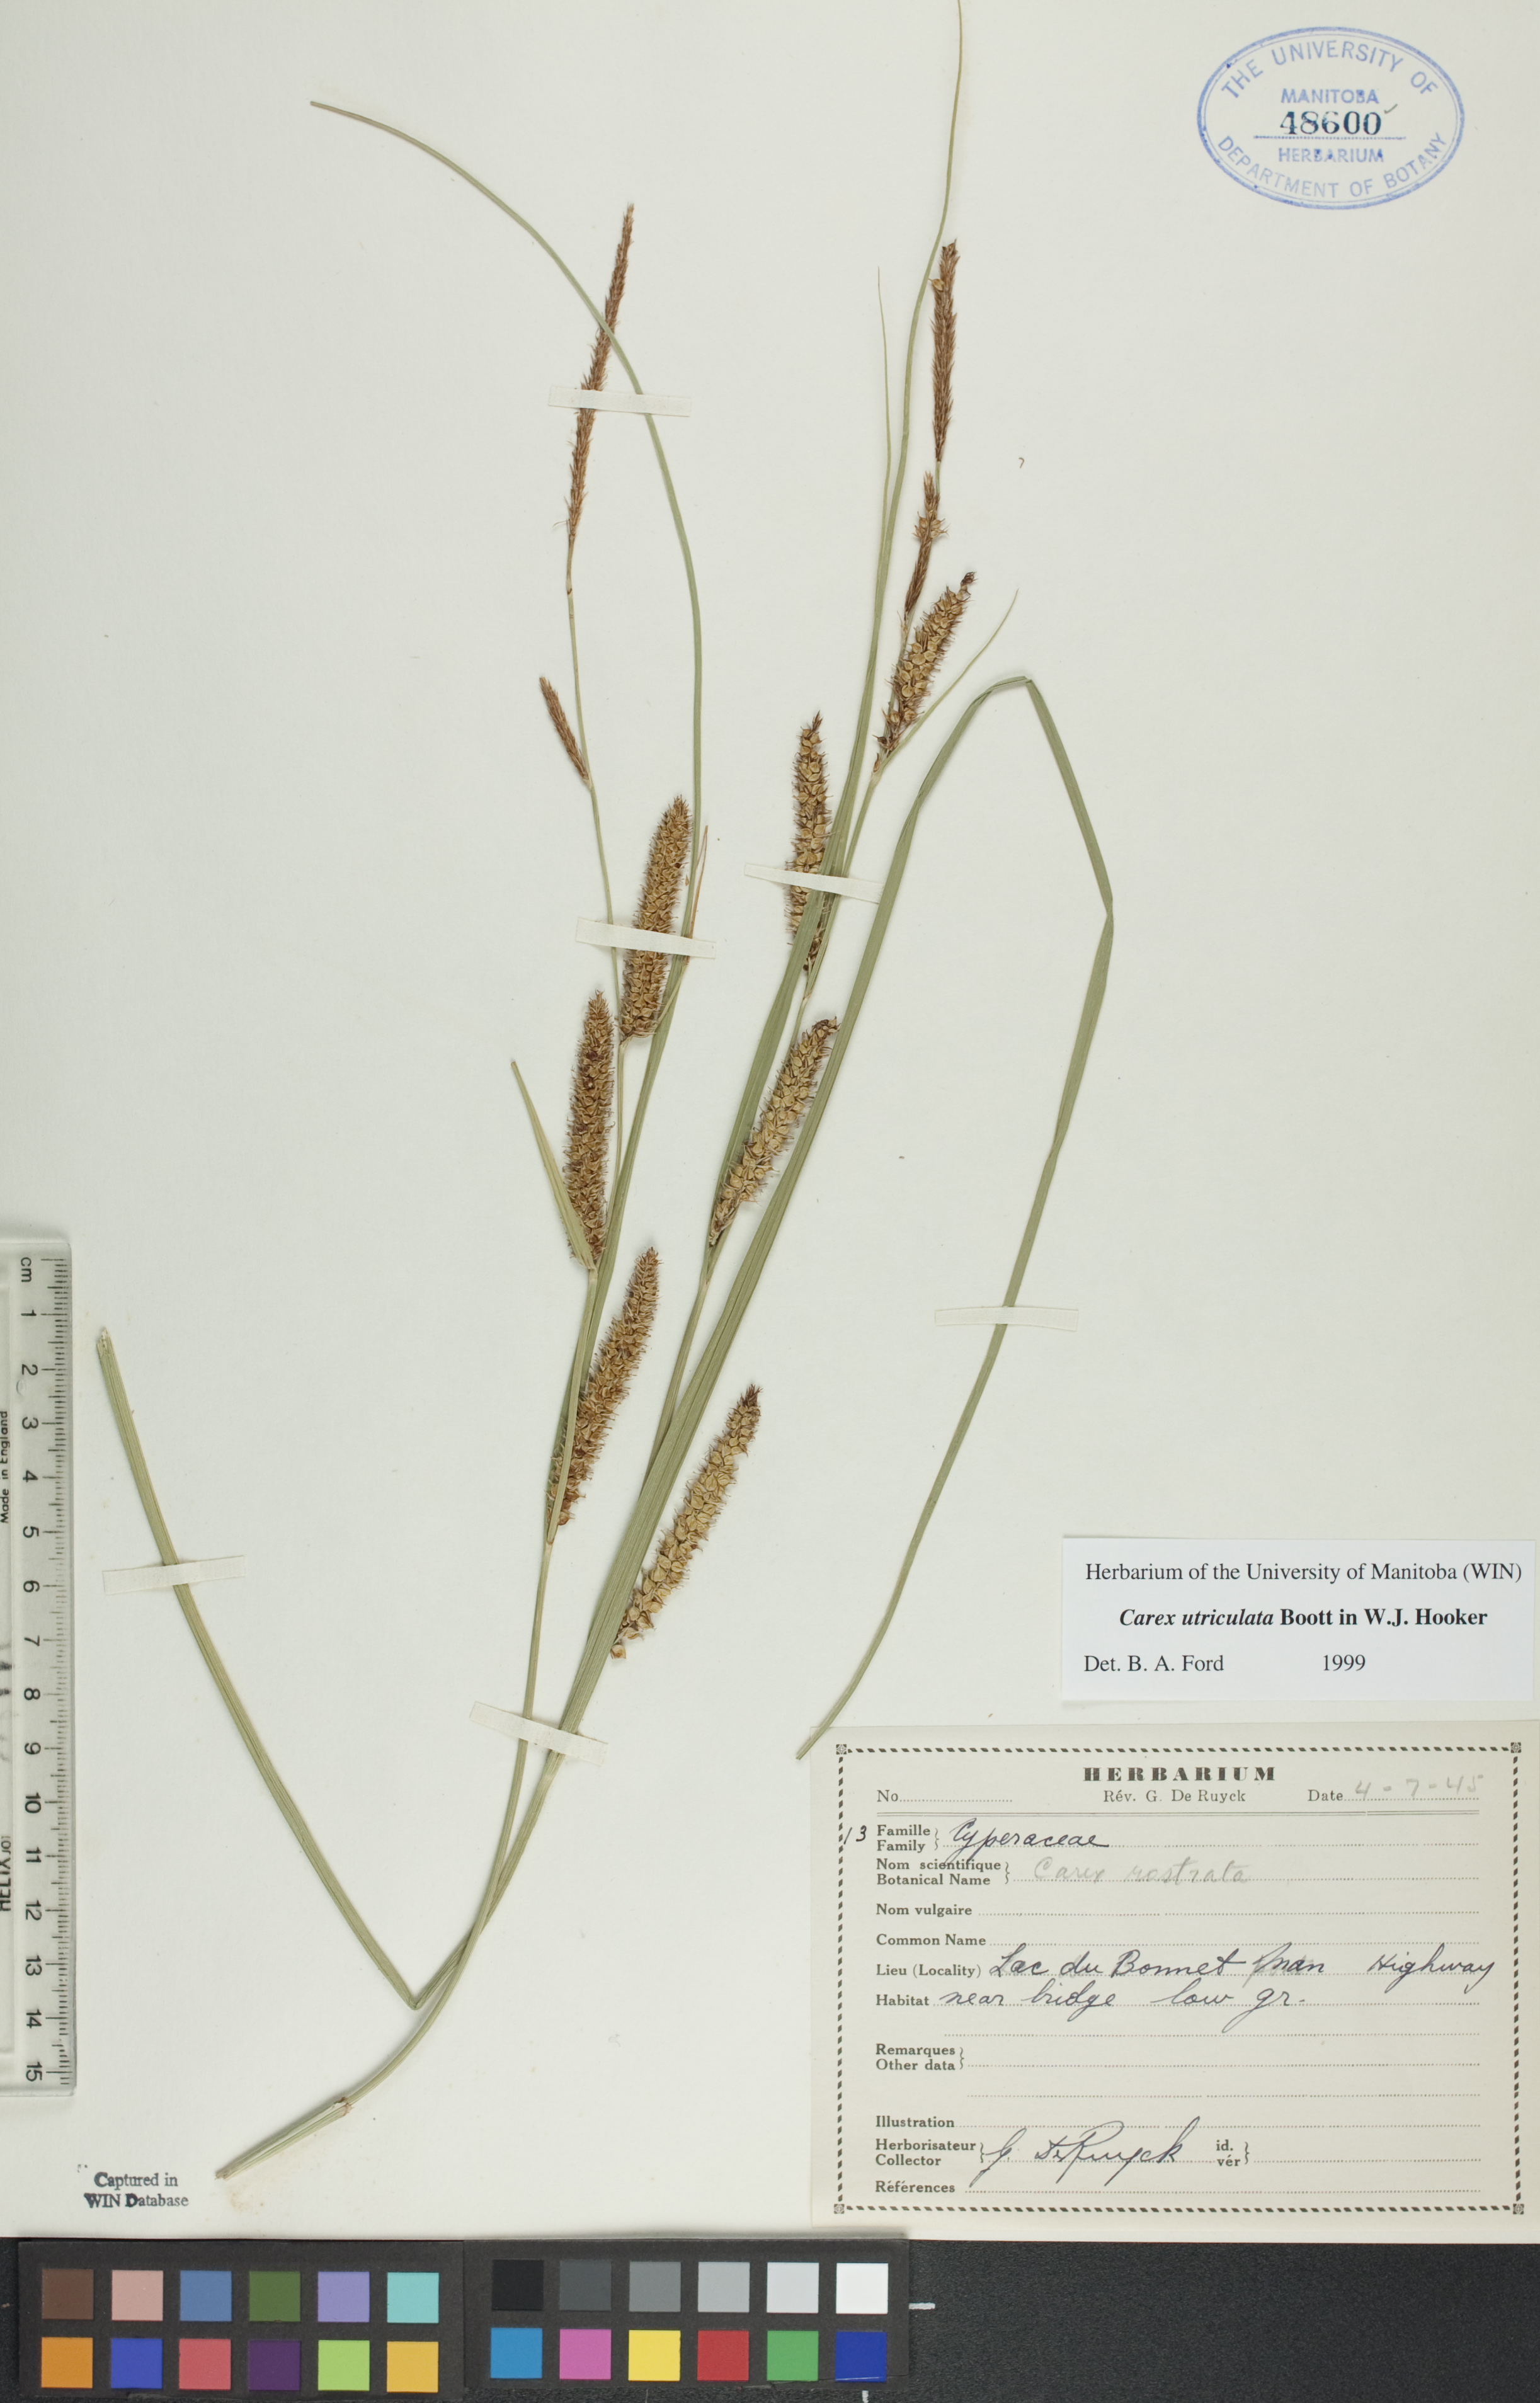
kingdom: Plantae
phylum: Tracheophyta
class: Liliopsida
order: Poales
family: Cyperaceae
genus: Carex
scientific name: Carex utriculata
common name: Beaked sedge
